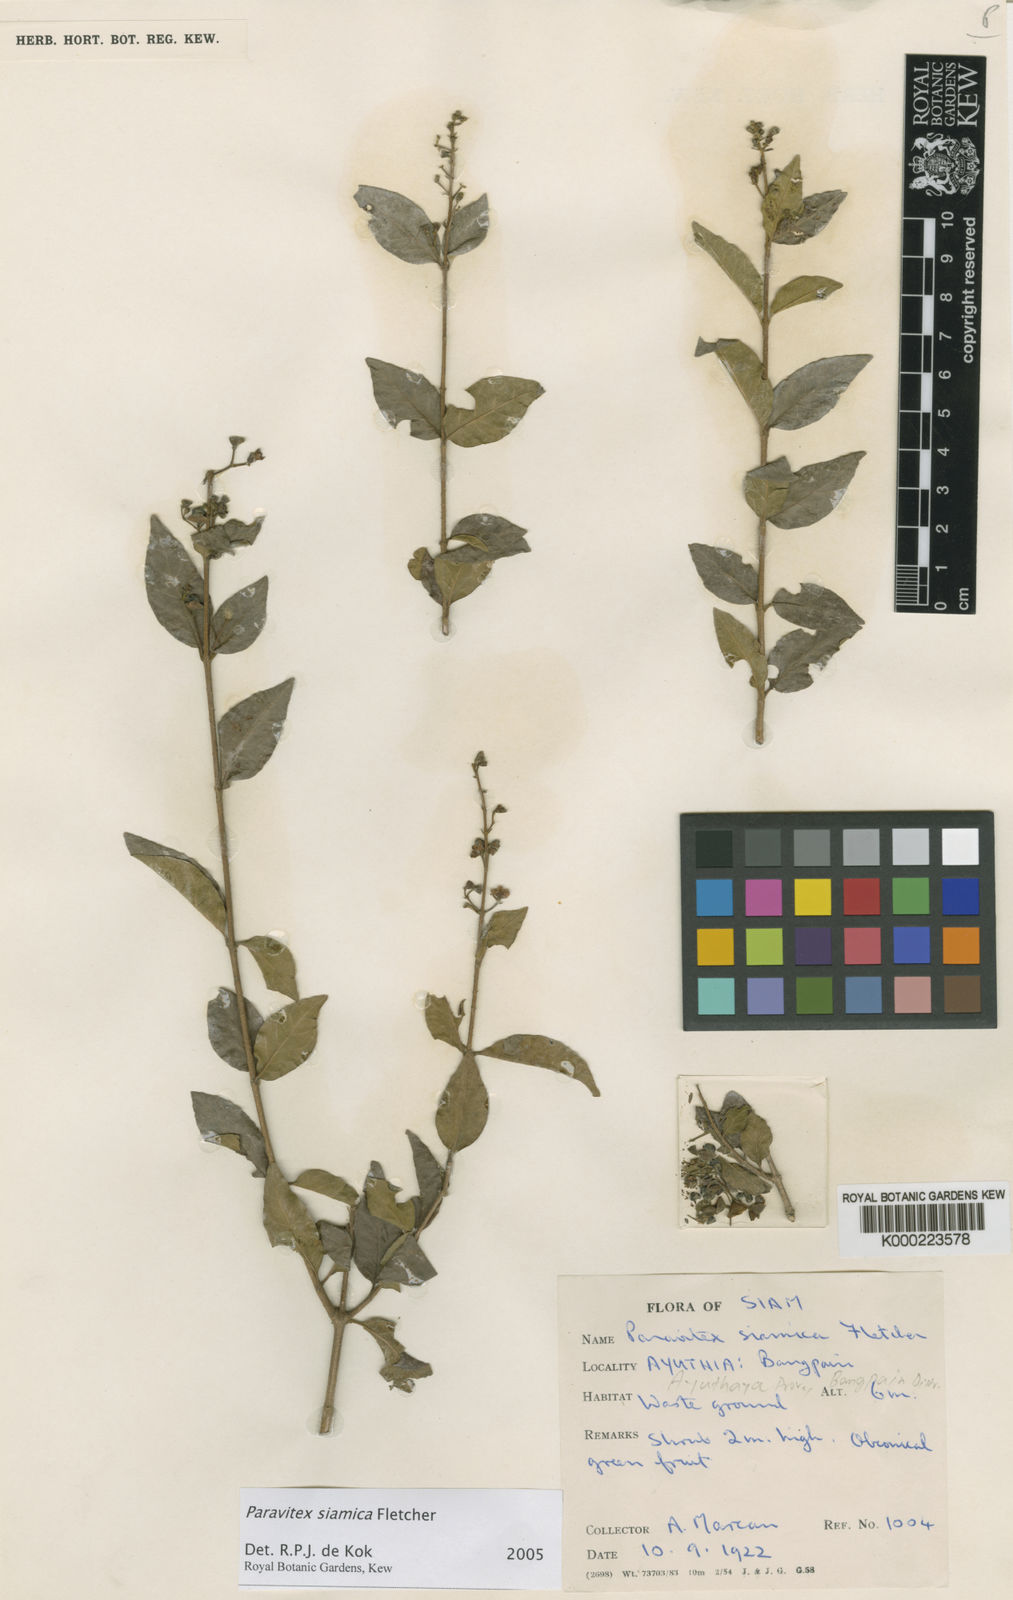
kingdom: Plantae
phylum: Tracheophyta
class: Magnoliopsida
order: Lamiales
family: Lamiaceae
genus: Vitex
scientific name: Vitex thailandica
